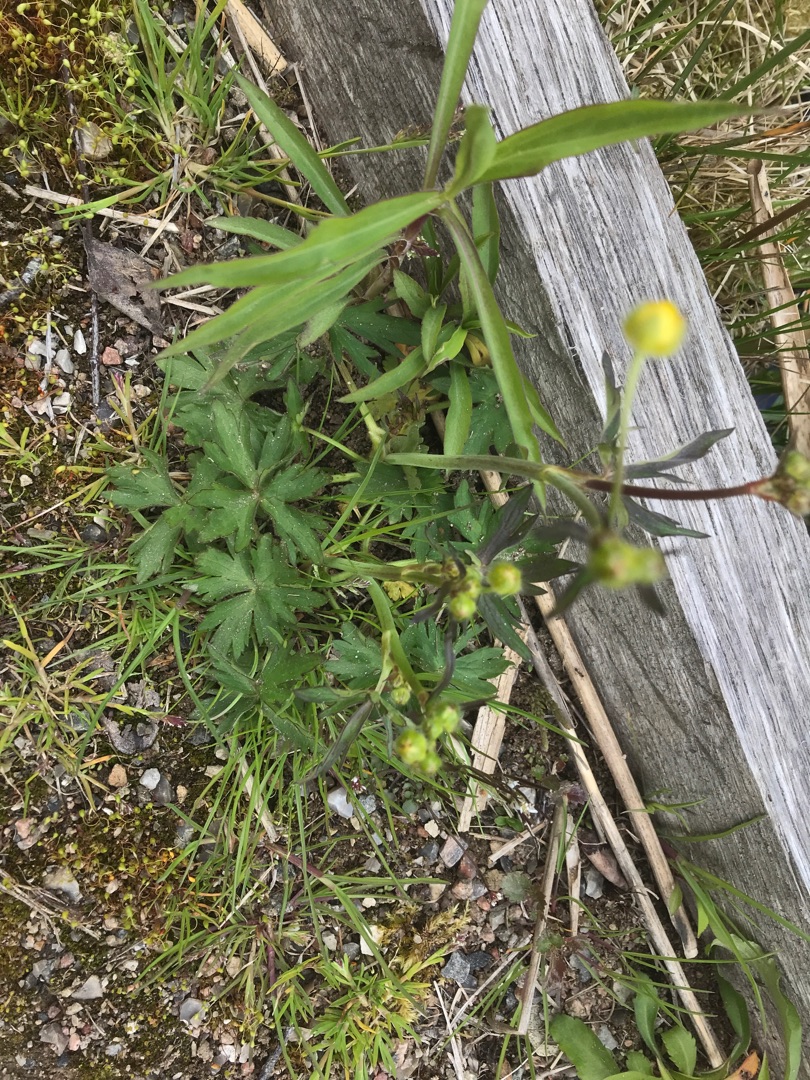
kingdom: Plantae
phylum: Tracheophyta
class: Magnoliopsida
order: Ranunculales
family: Ranunculaceae
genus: Ranunculus
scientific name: Ranunculus acris
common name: Bidende ranunkel
